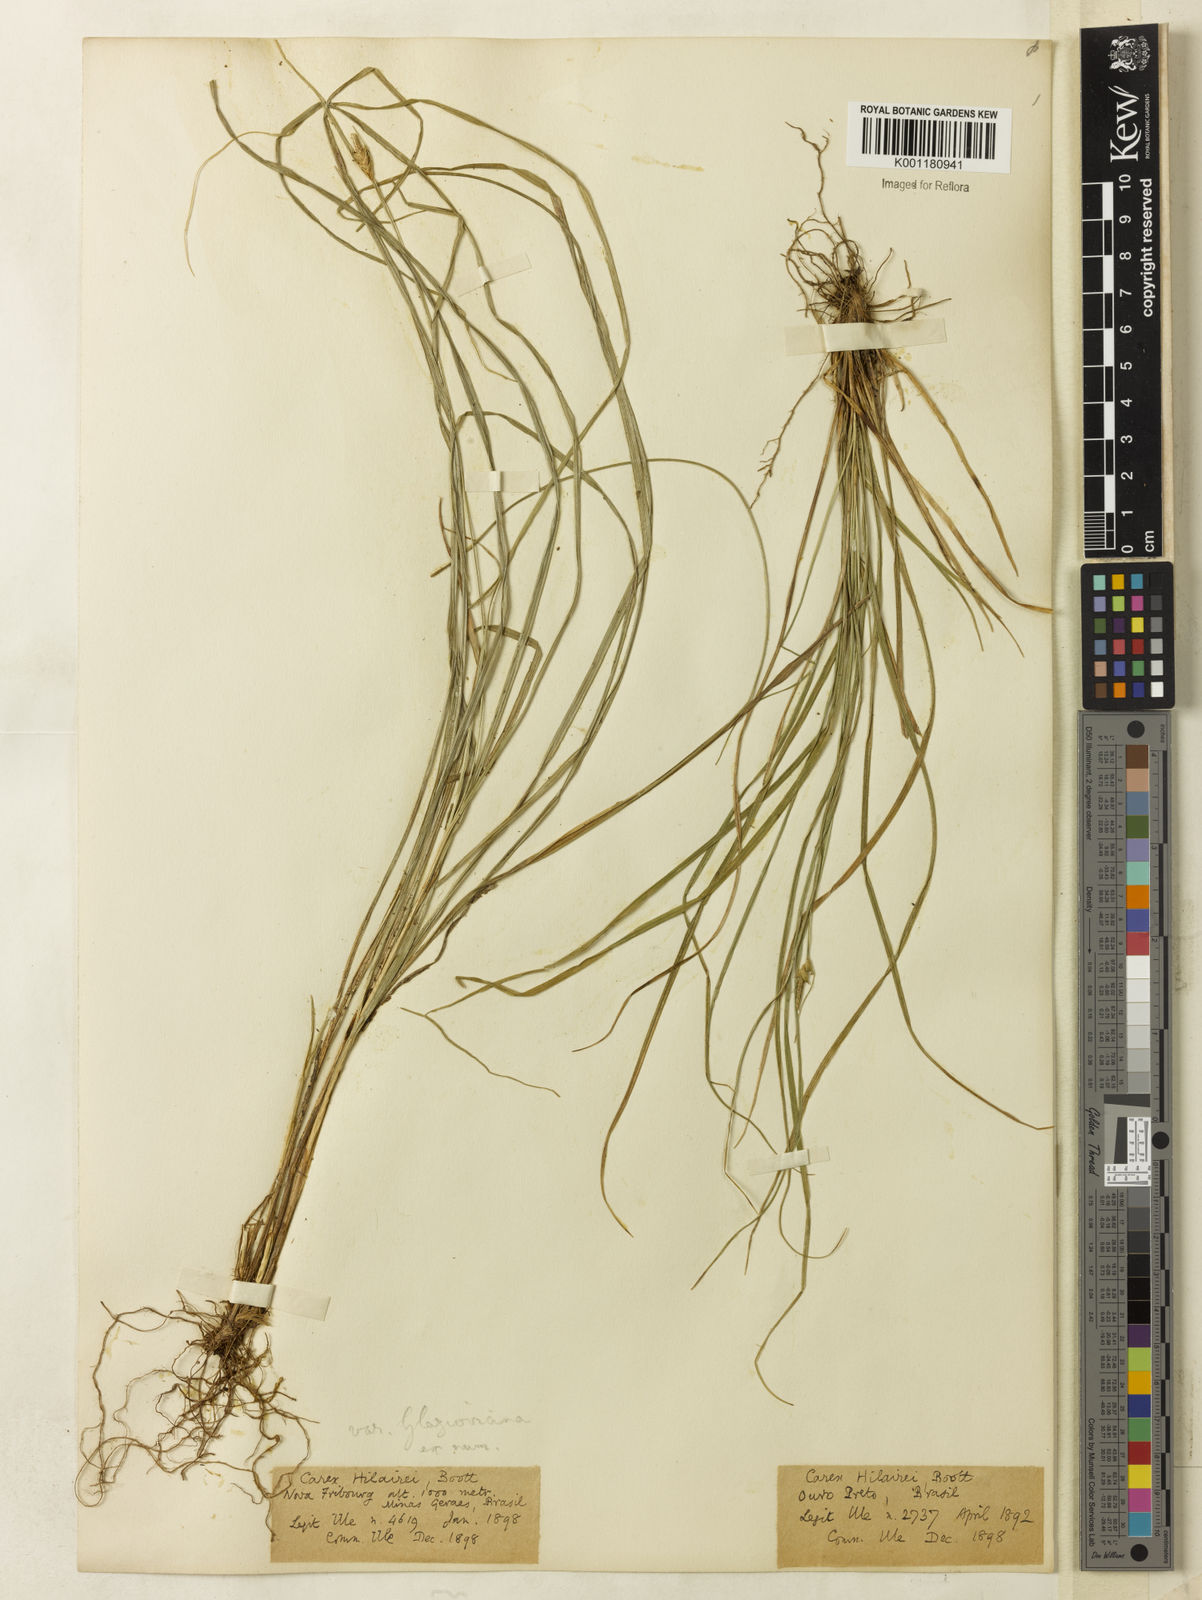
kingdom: Plantae
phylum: Tracheophyta
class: Liliopsida
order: Poales
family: Cyperaceae
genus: Carex
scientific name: Carex hilairei
